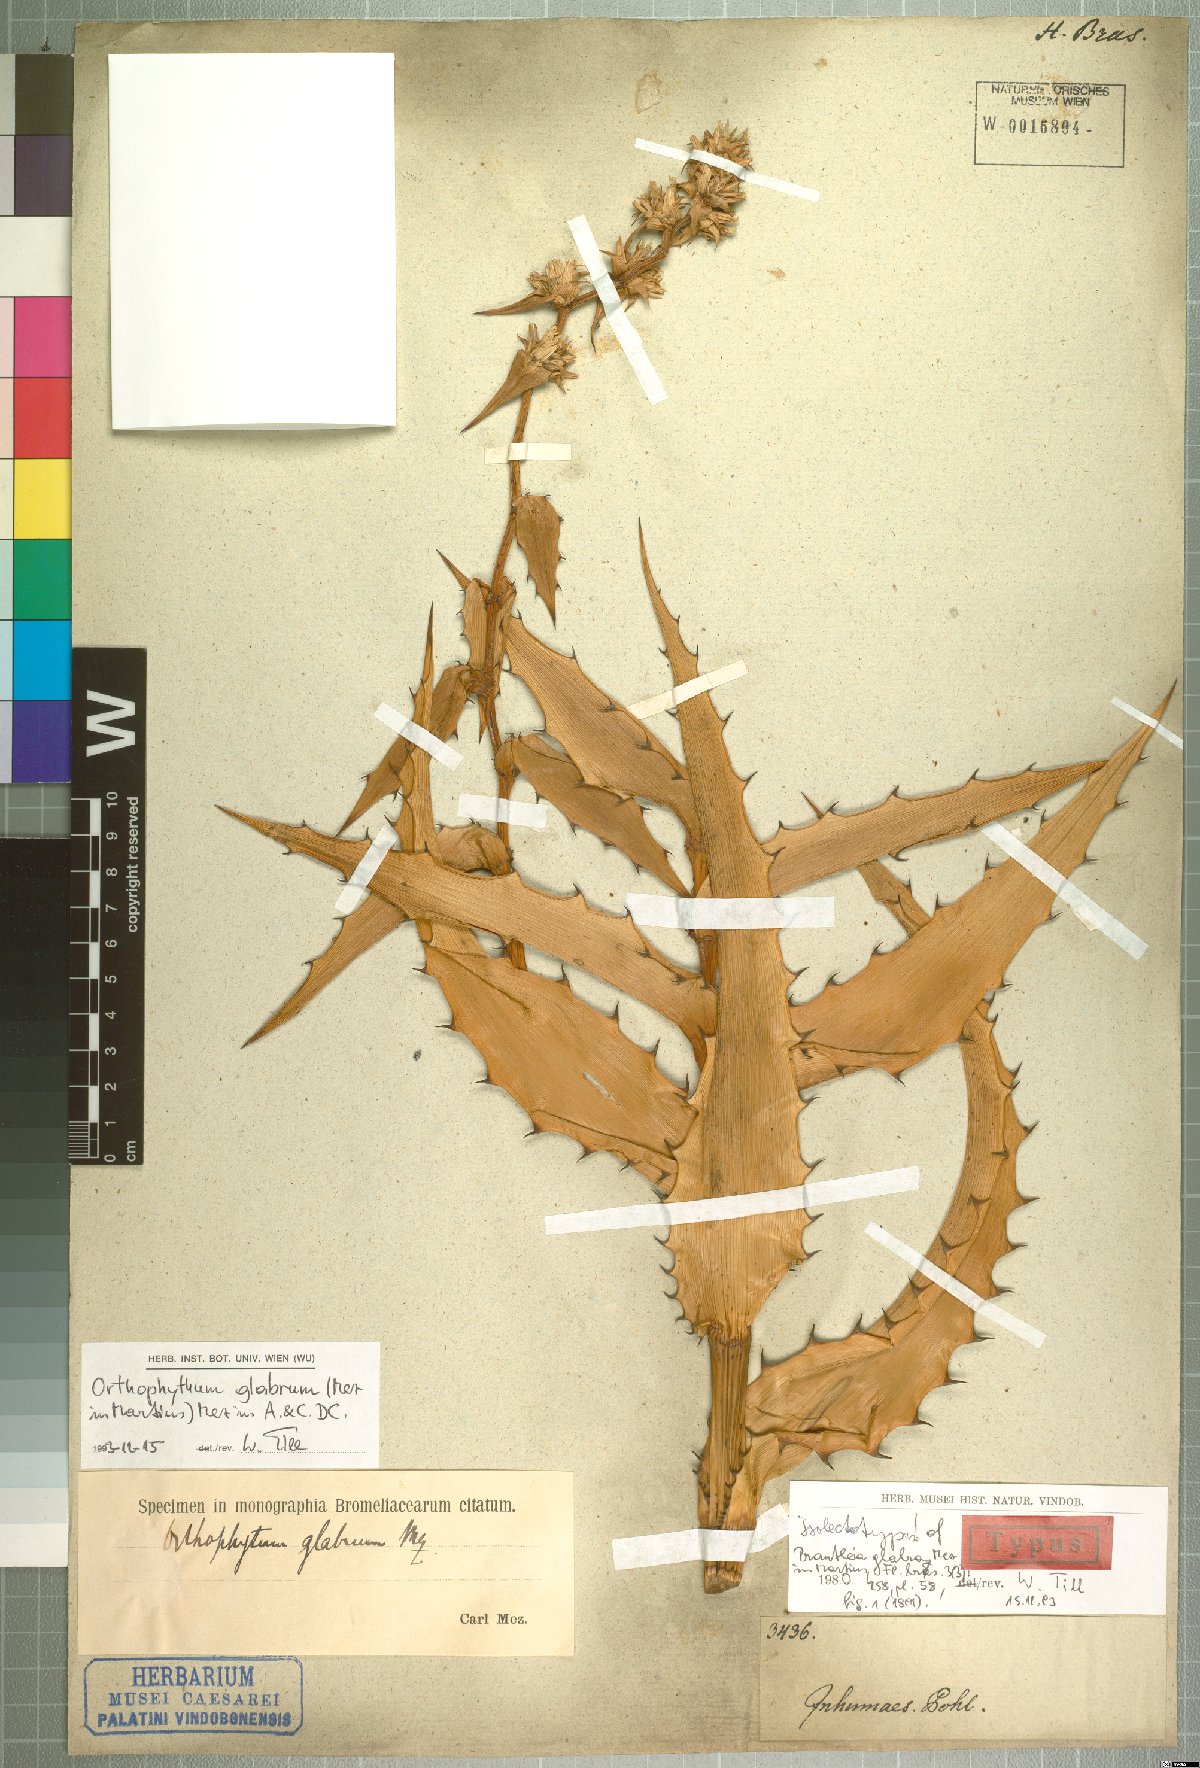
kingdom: Plantae
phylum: Tracheophyta
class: Liliopsida
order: Poales
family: Bromeliaceae
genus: Orthophytum
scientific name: Orthophytum glabrum
